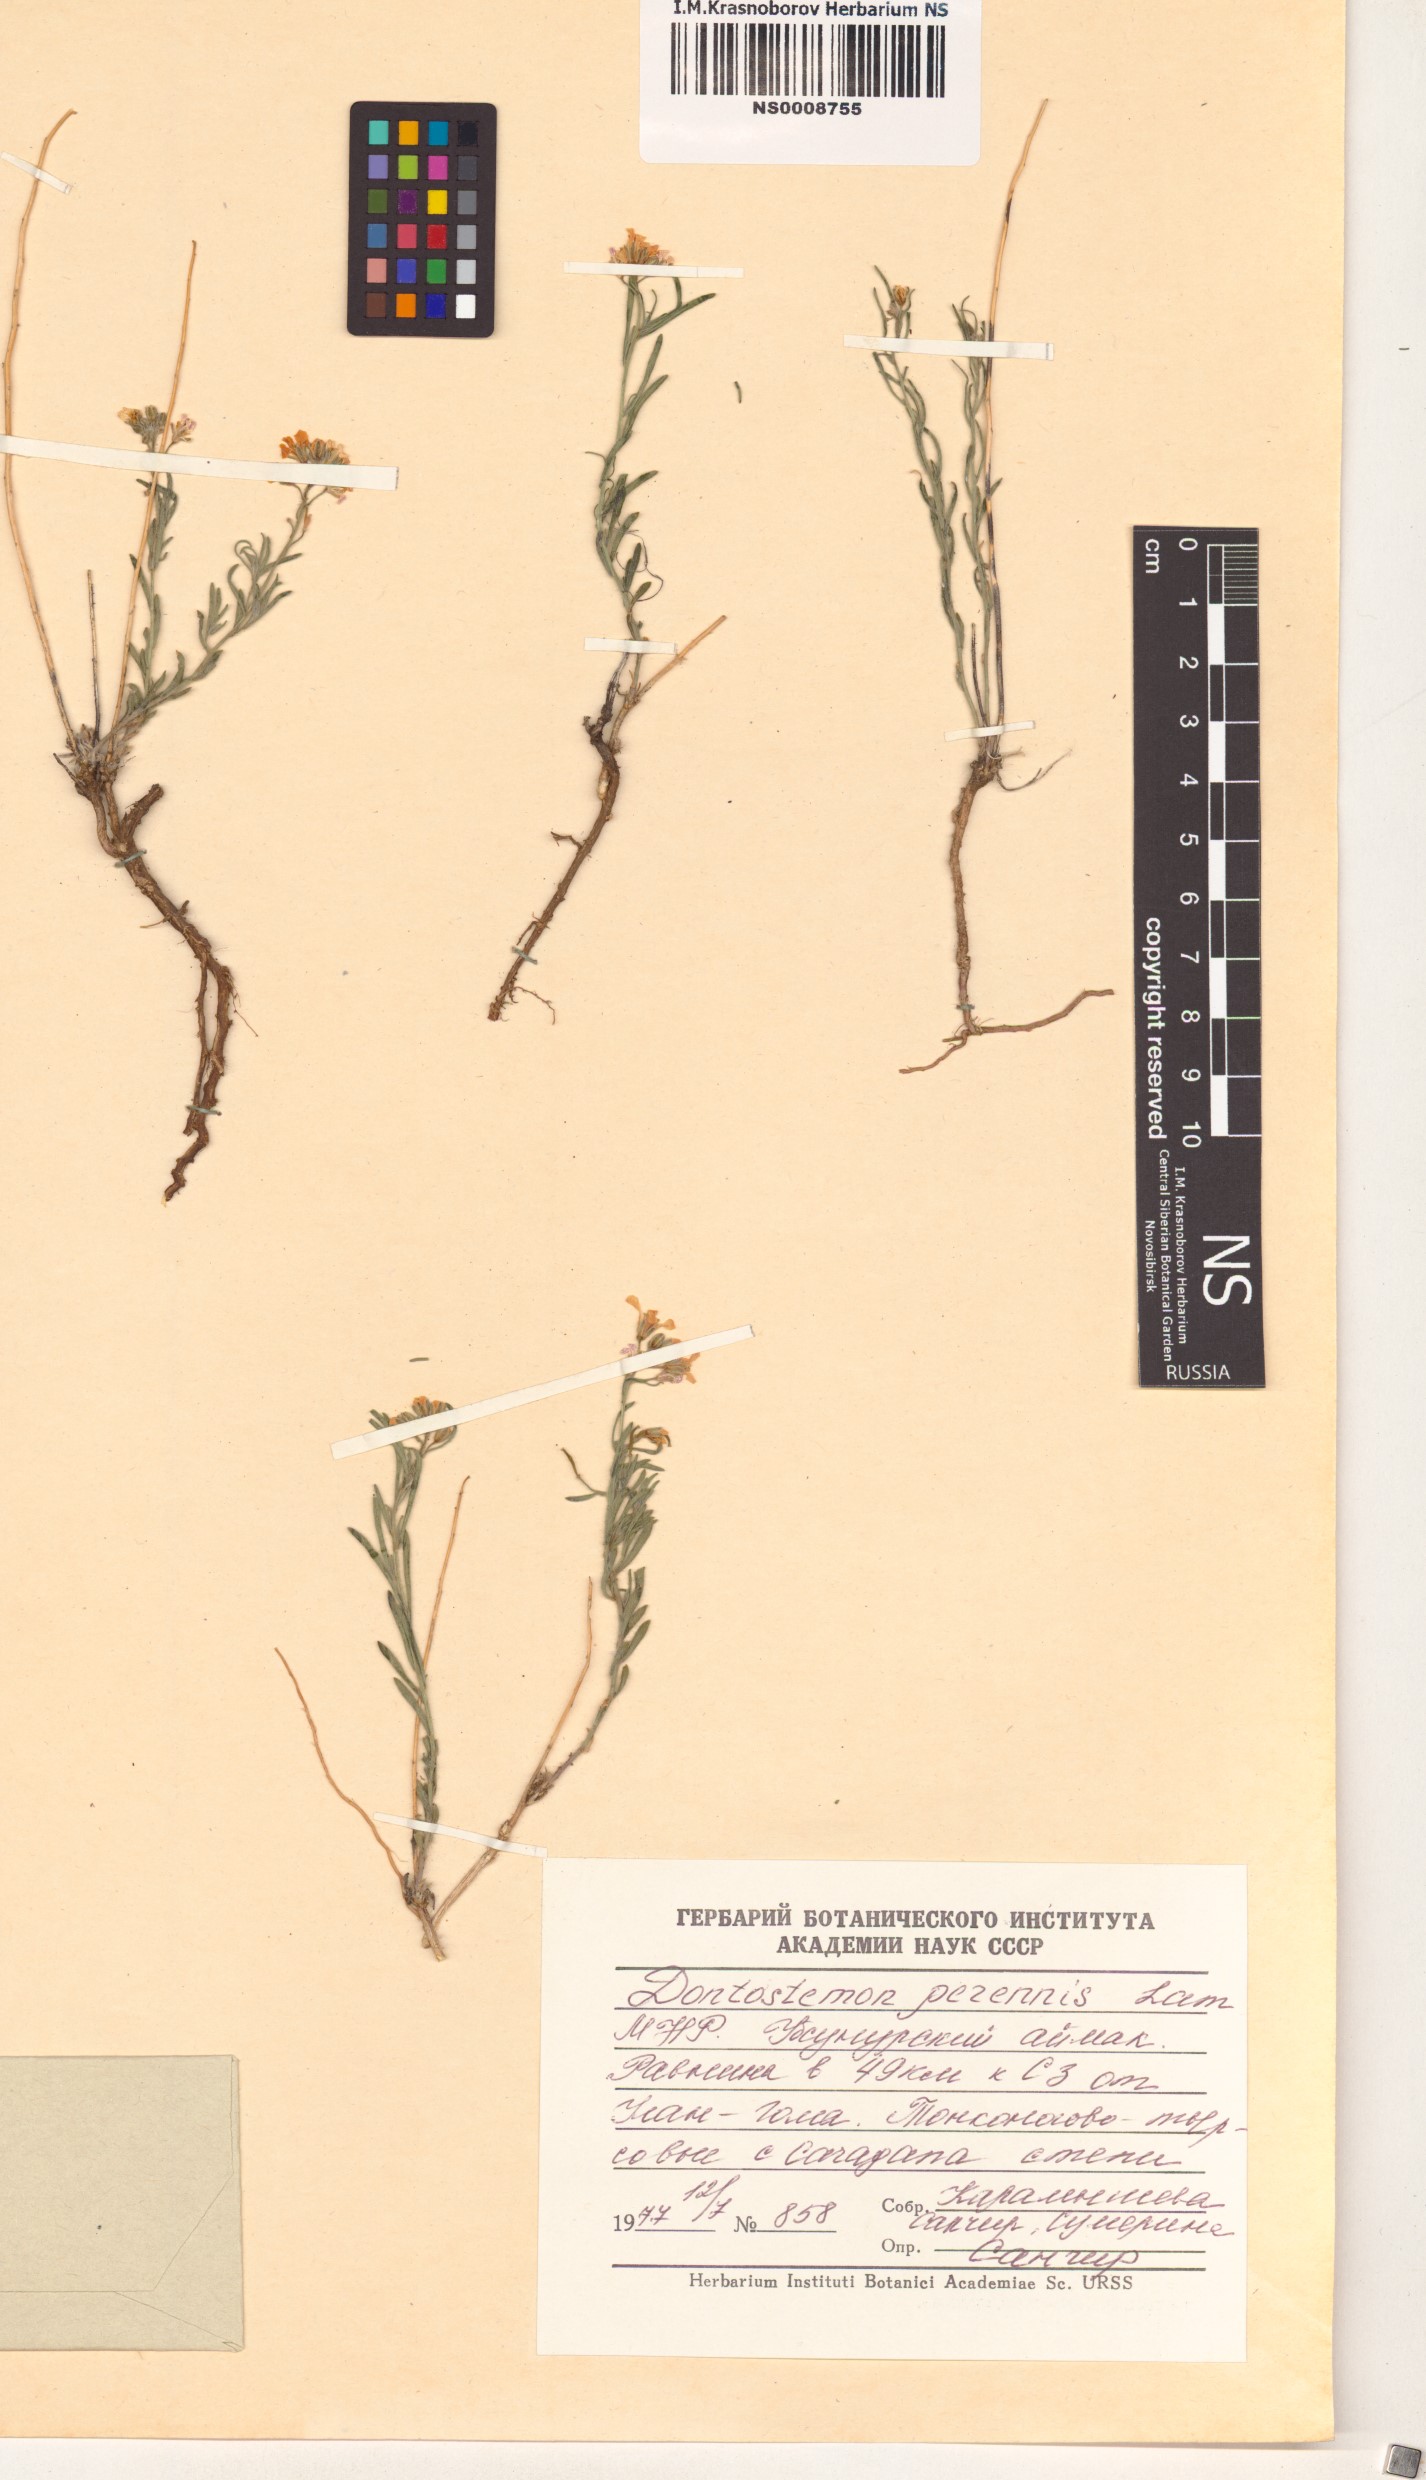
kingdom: Plantae
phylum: Tracheophyta
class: Magnoliopsida
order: Brassicales
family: Brassicaceae
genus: Dontostemon
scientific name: Dontostemon perennis
